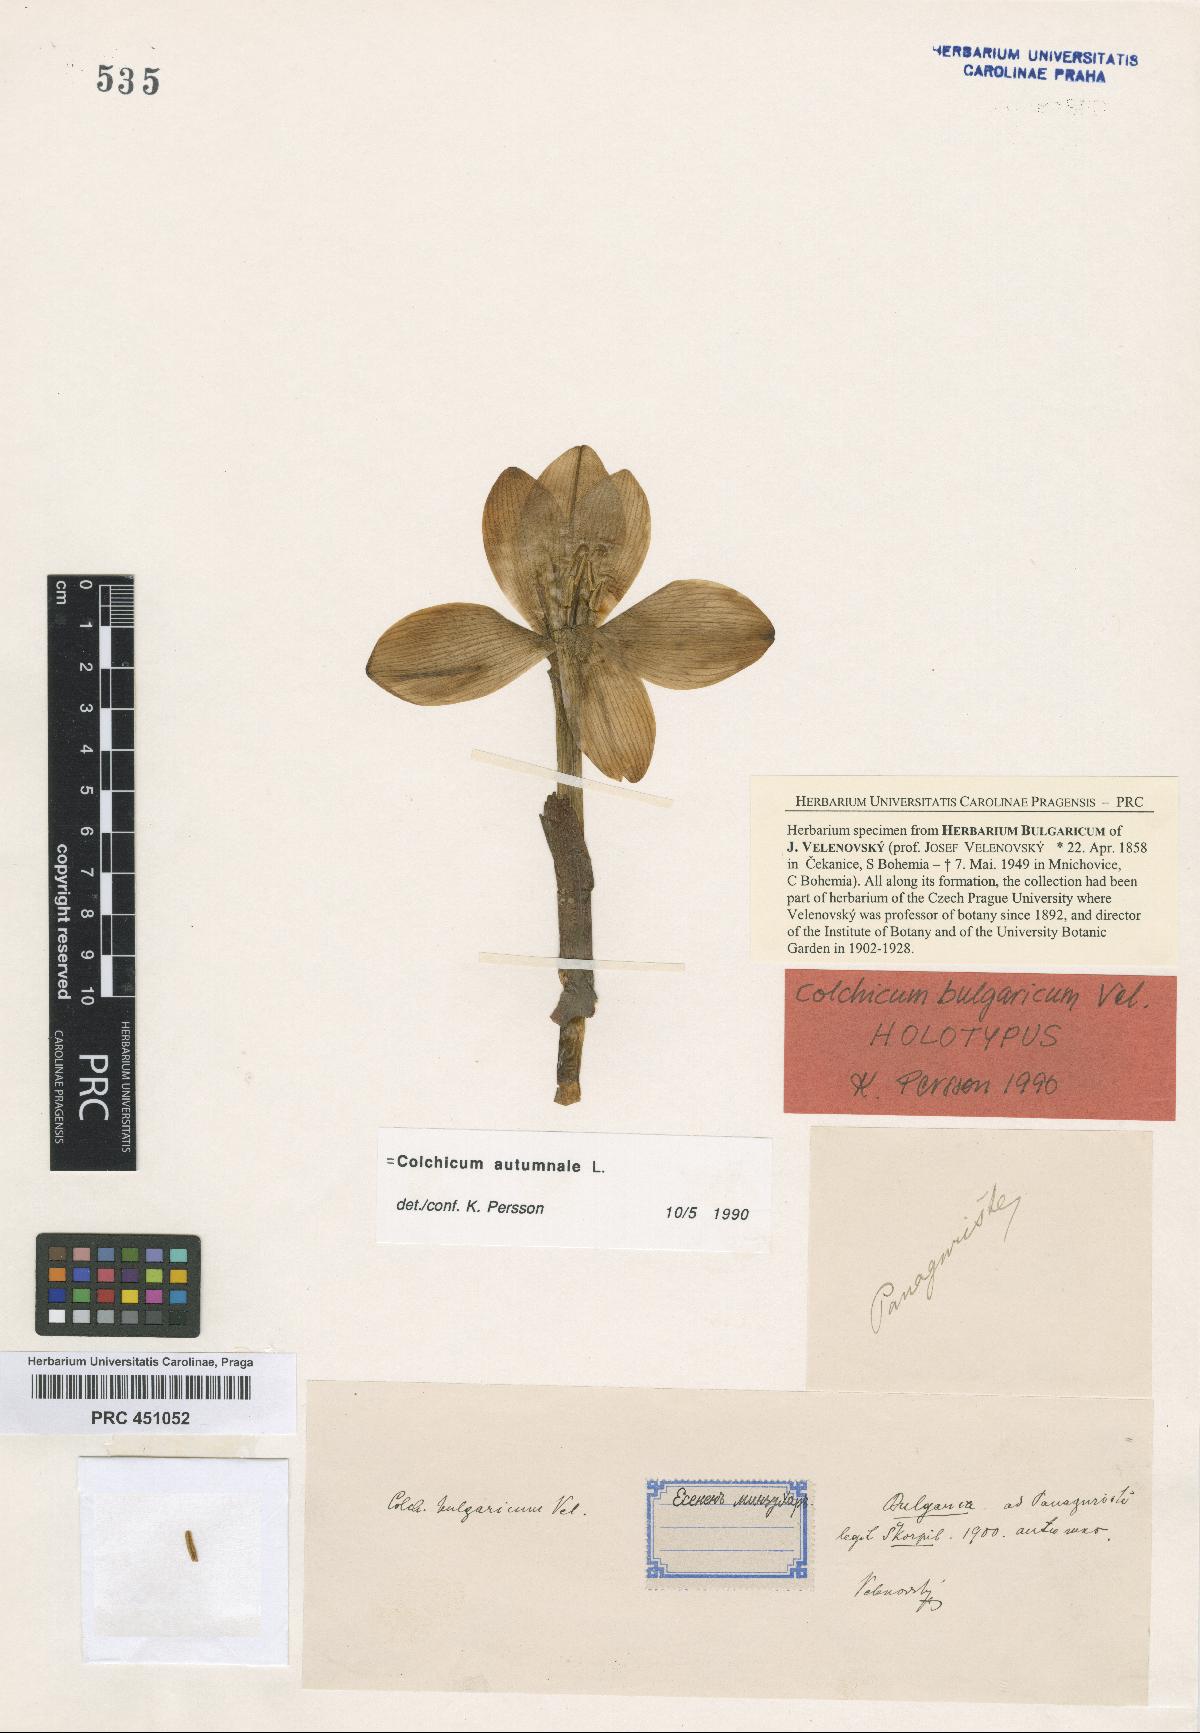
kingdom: Plantae
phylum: Tracheophyta
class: Liliopsida
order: Liliales
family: Colchicaceae
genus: Colchicum
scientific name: Colchicum autumnale
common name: Autumn crocus
